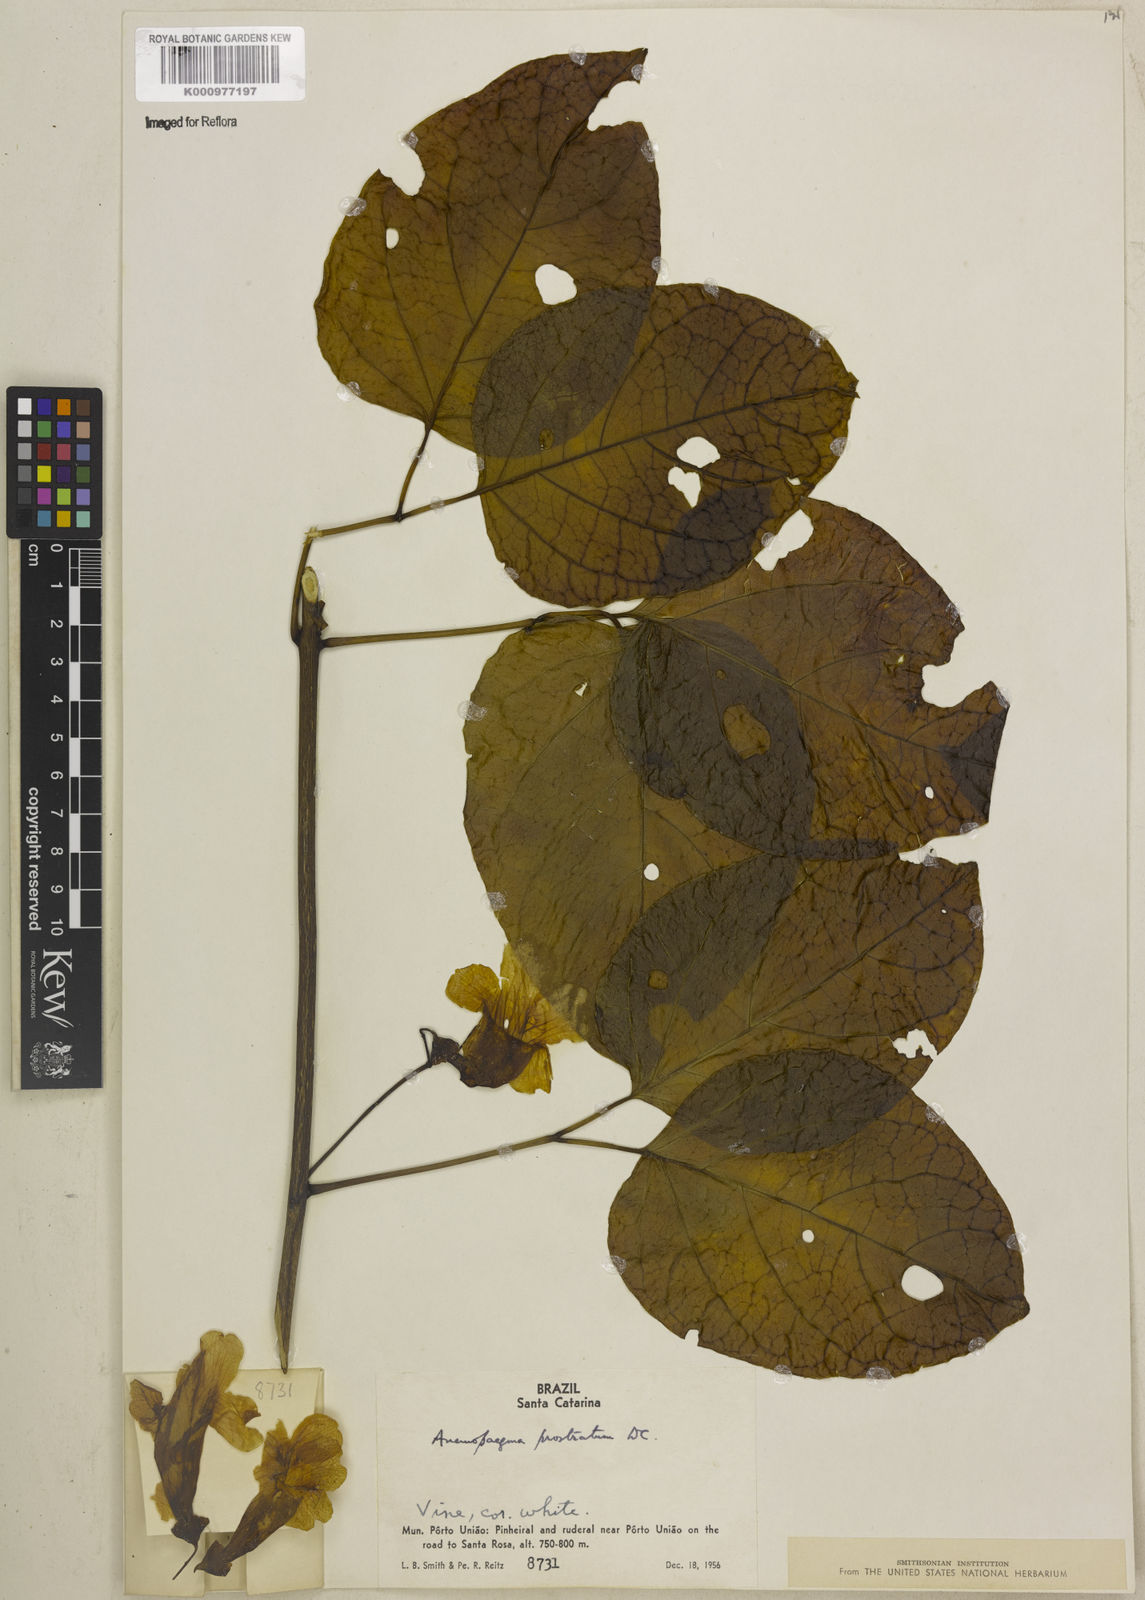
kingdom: Plantae
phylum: Tracheophyta
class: Magnoliopsida
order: Lamiales
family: Bignoniaceae
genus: Anemopaegma
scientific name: Anemopaegma prostratum
